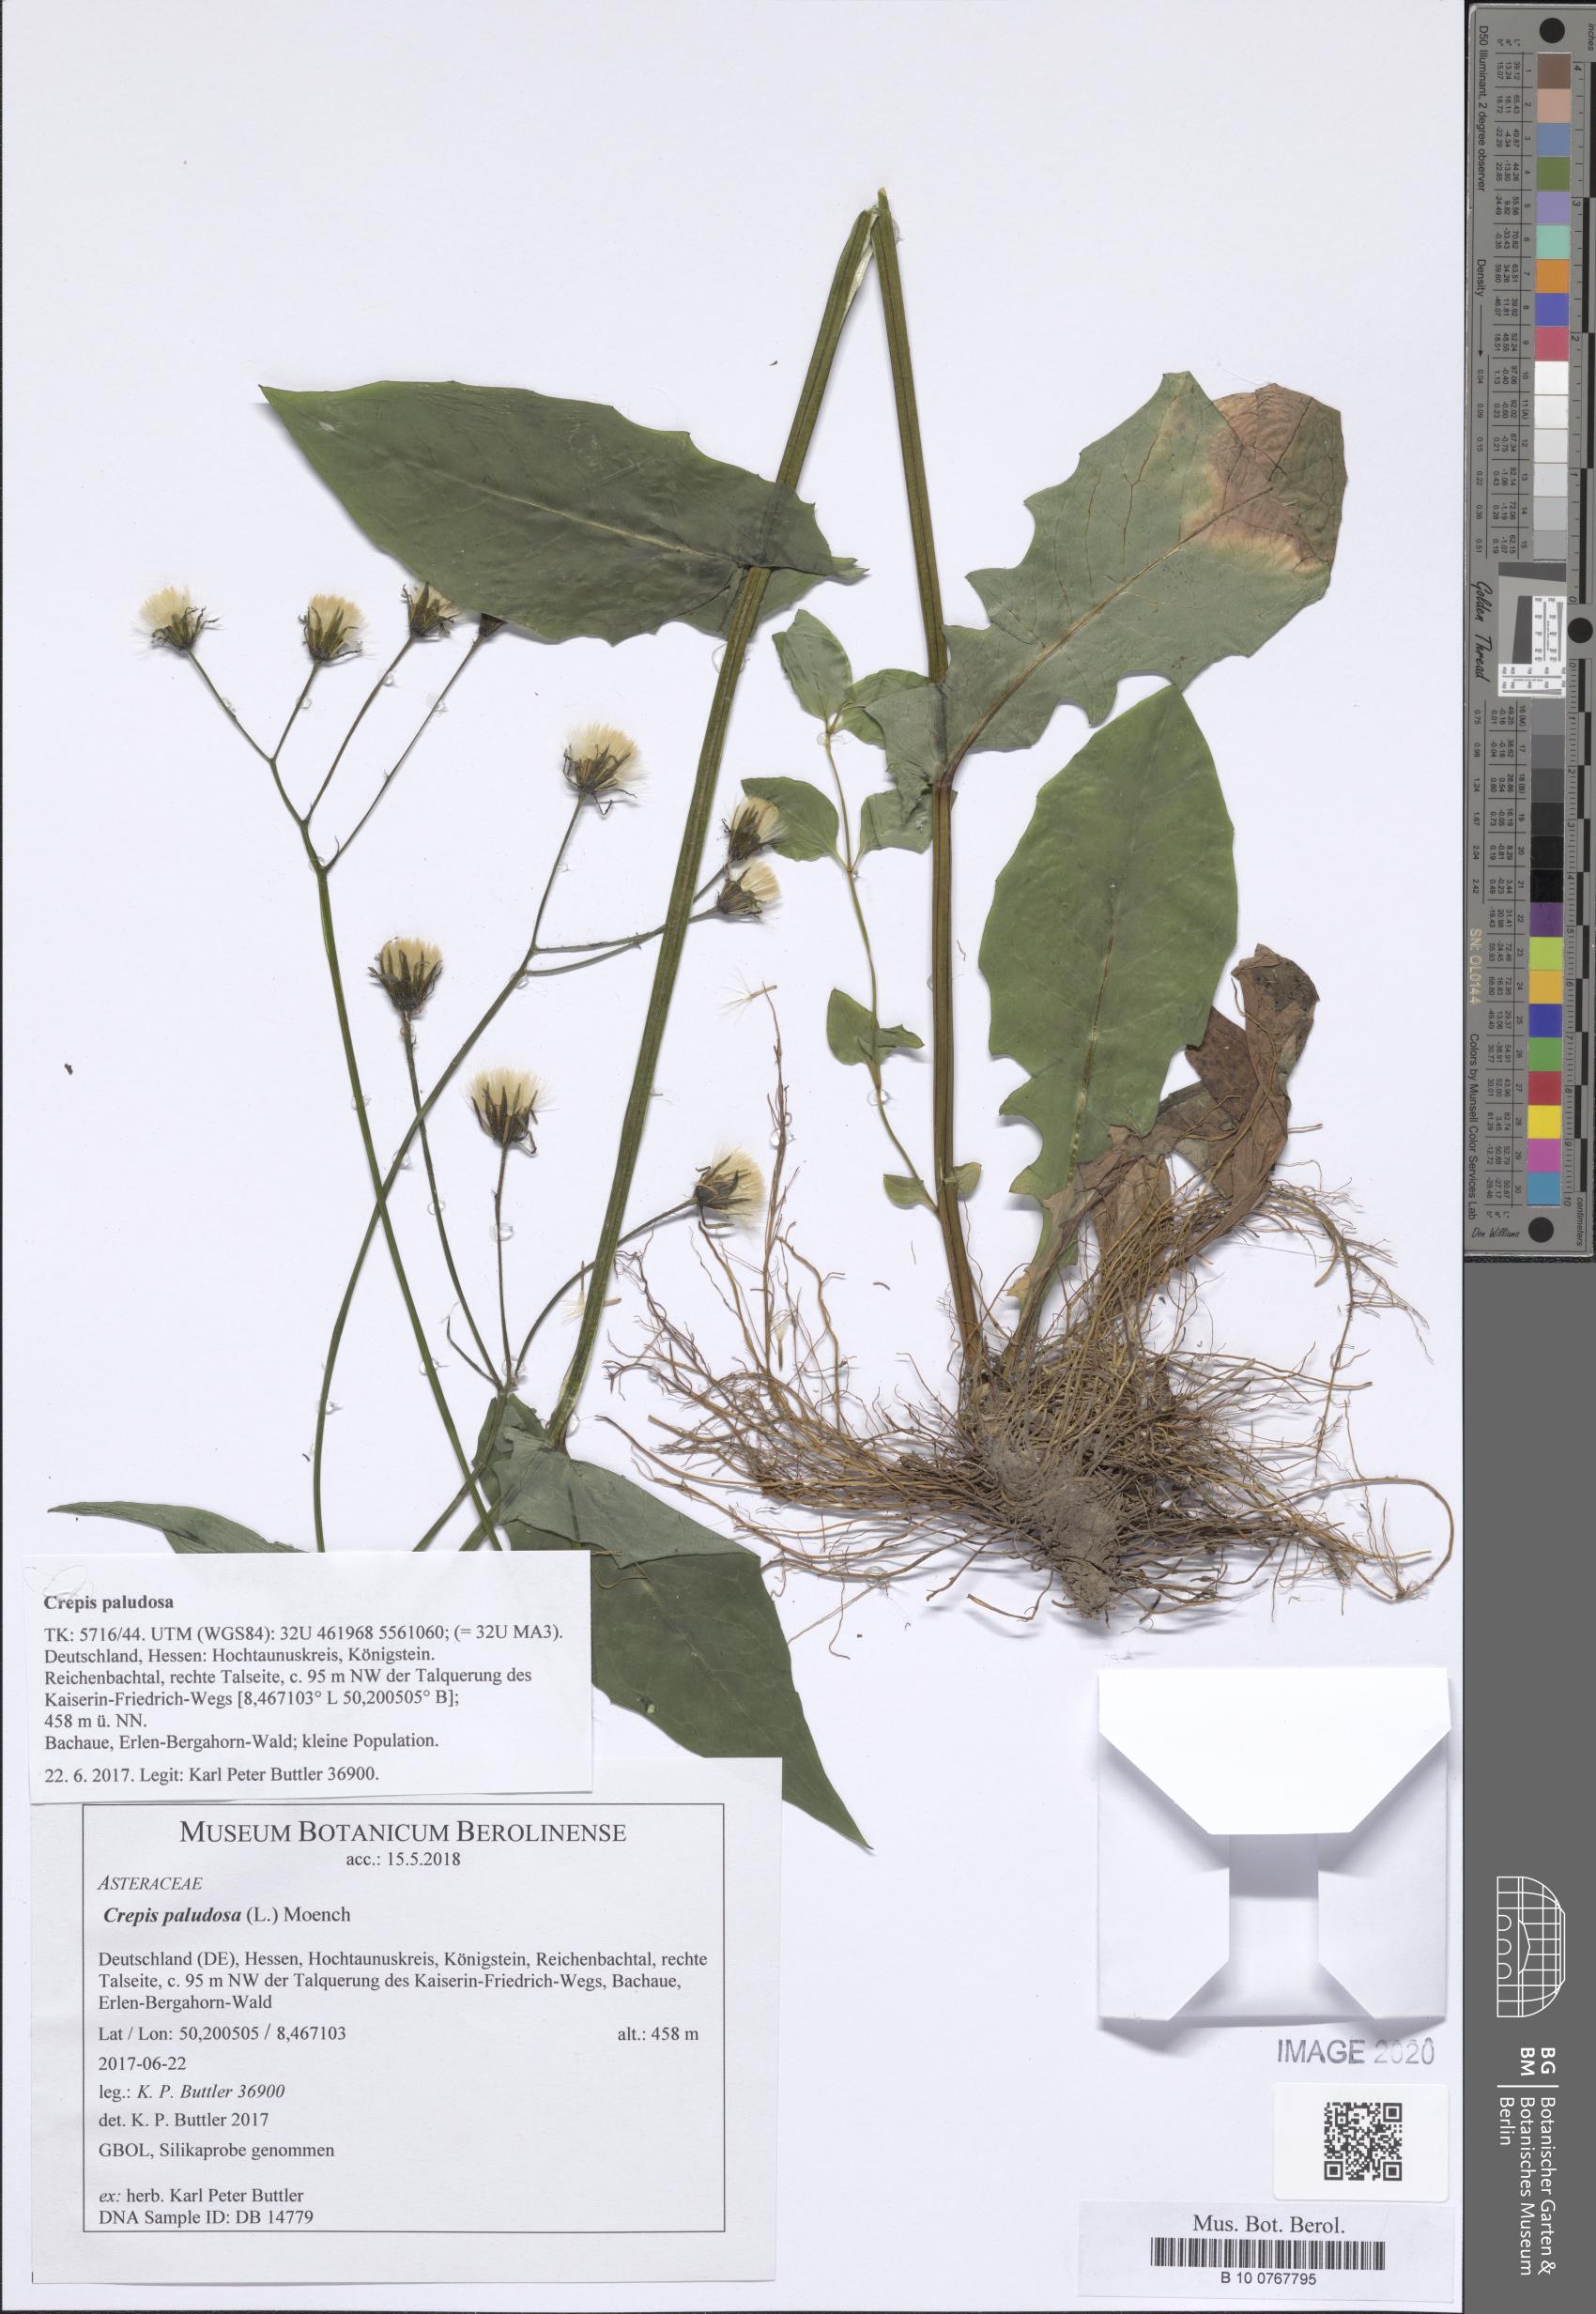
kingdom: Plantae
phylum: Tracheophyta
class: Magnoliopsida
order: Asterales
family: Asteraceae
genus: Crepis
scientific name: Crepis paludosa
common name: Marsh hawk's-beard
